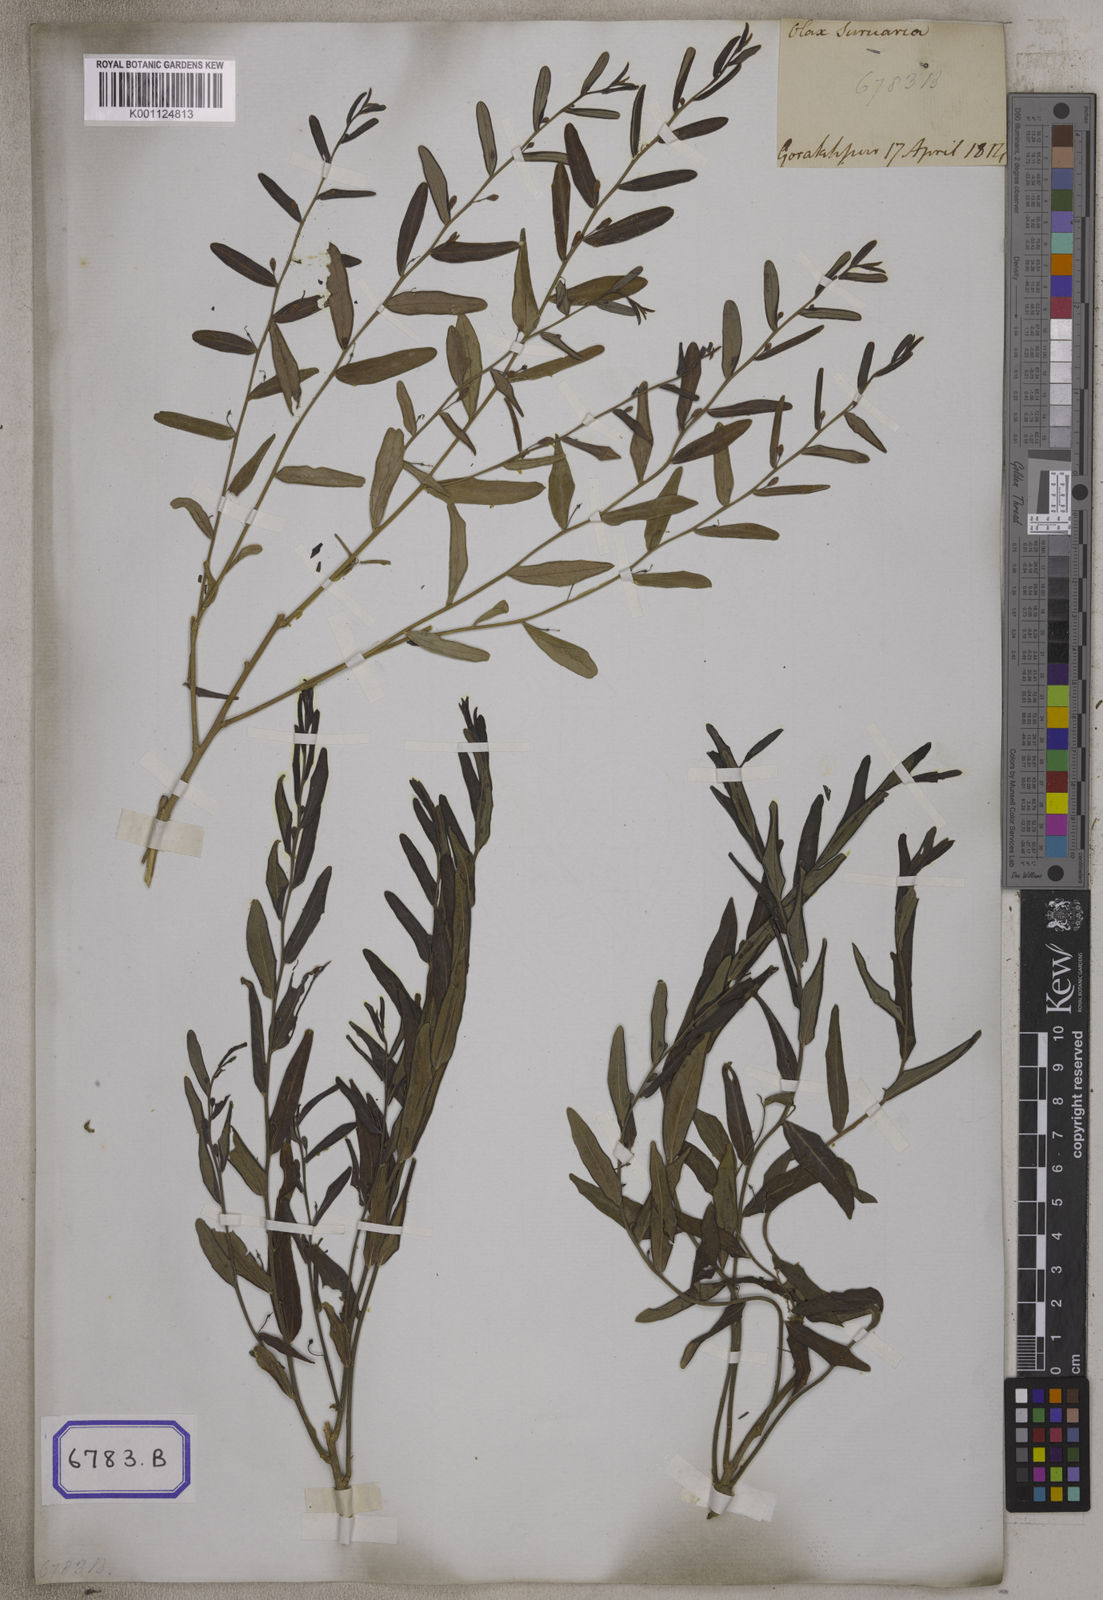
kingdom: Plantae
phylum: Tracheophyta
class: Magnoliopsida
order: Santalales
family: Olacaceae
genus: Olax
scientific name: Olax
